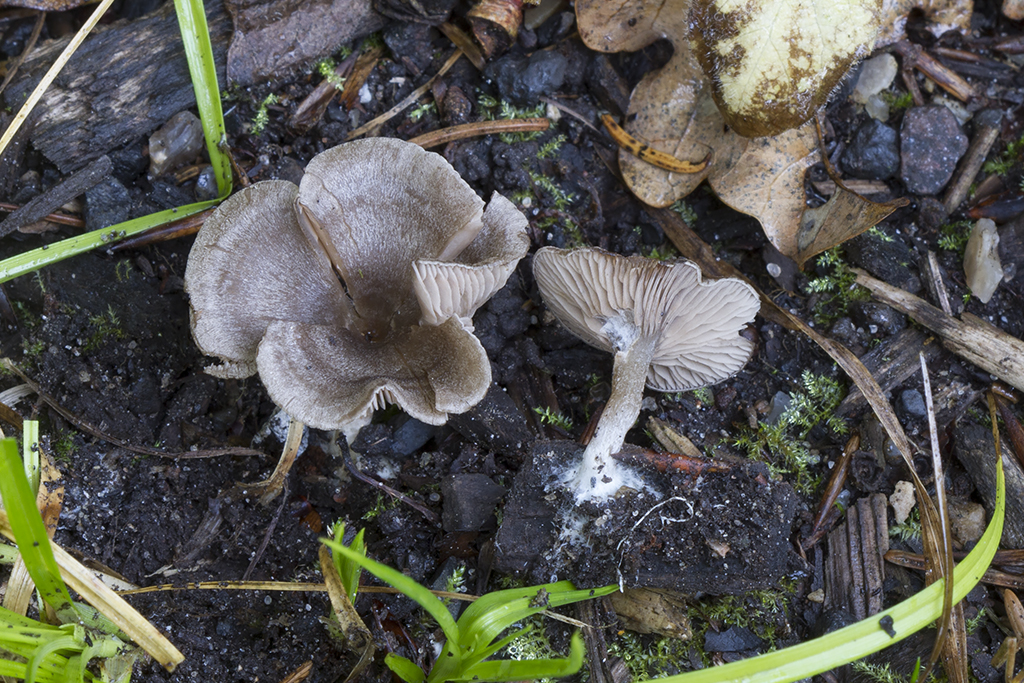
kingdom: Fungi
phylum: Basidiomycota
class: Agaricomycetes
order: Agaricales
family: Entolomataceae
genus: Entoloma
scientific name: Entoloma undatum
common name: bæltet rødblad
